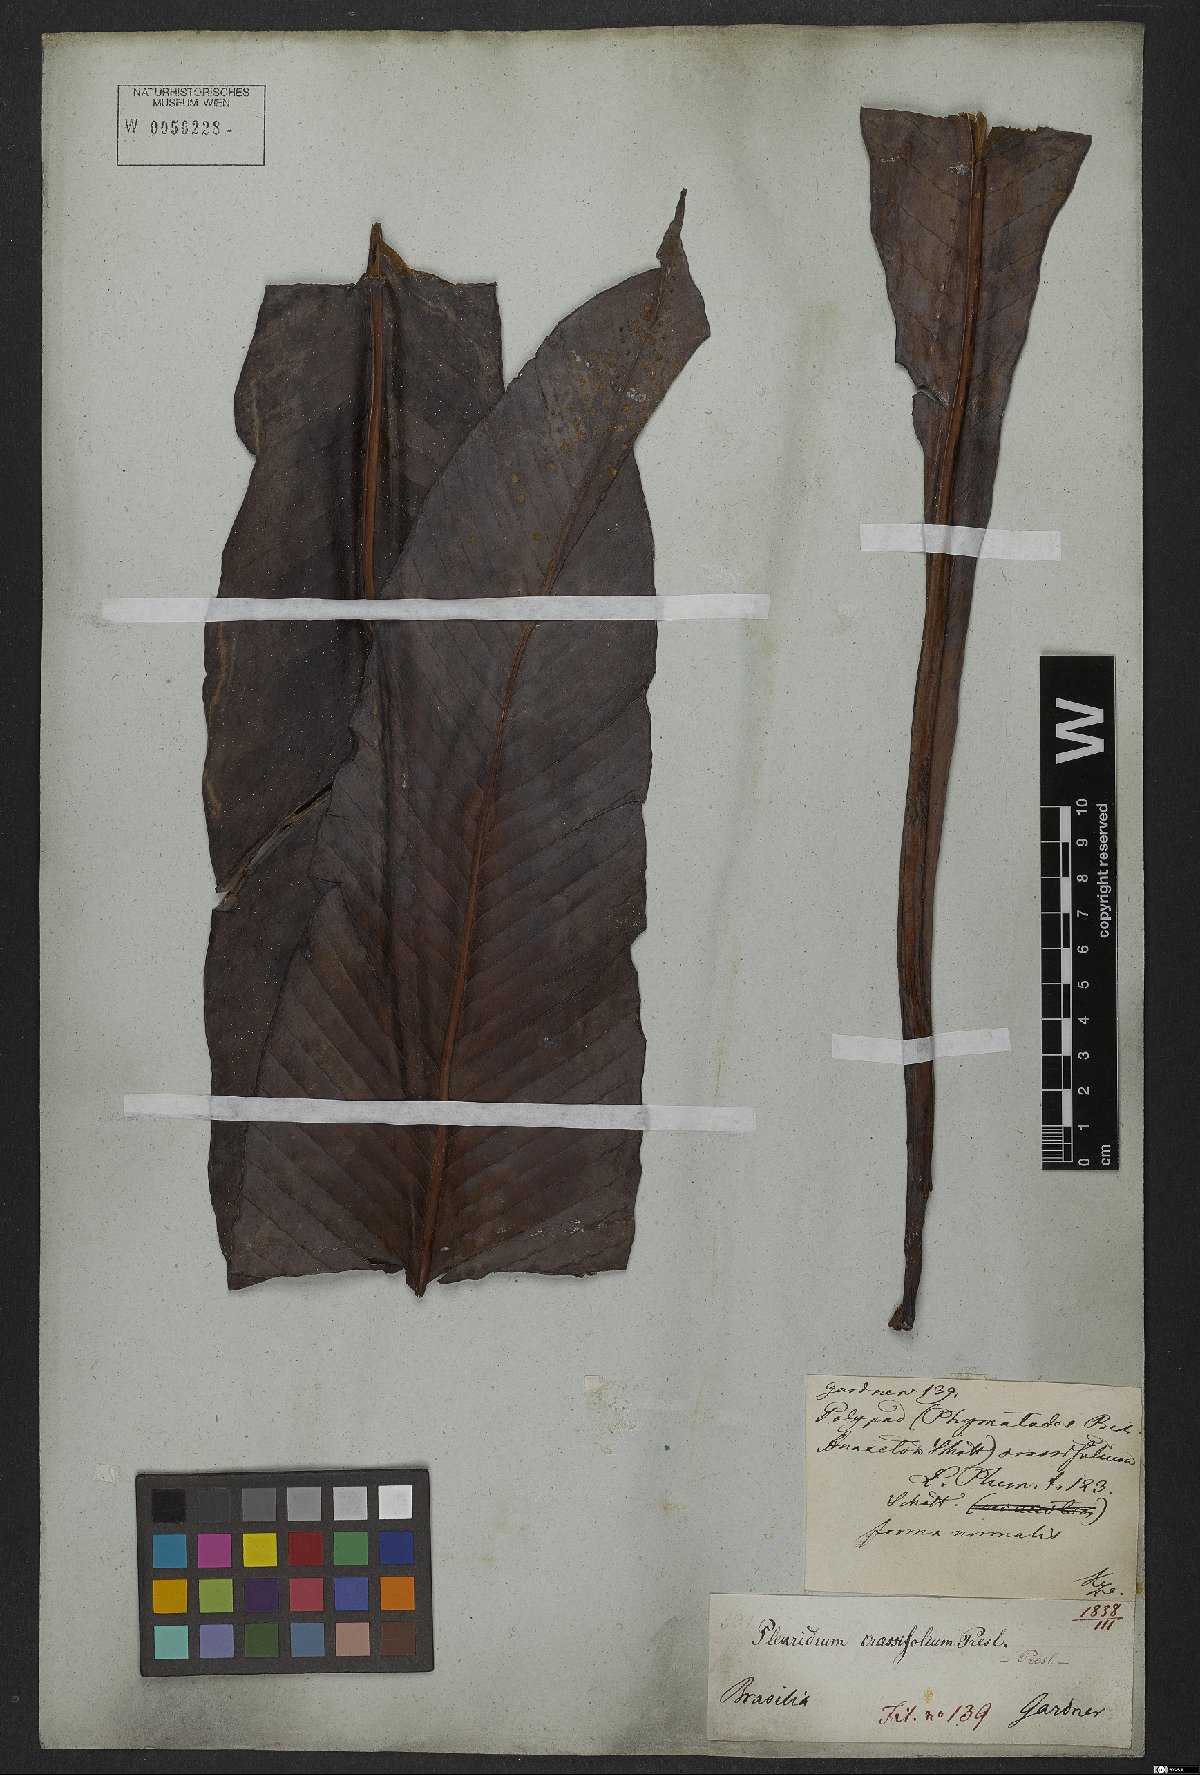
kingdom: Plantae
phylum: Tracheophyta
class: Polypodiopsida
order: Polypodiales
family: Polypodiaceae
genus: Niphidium
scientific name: Niphidium crassifolium
